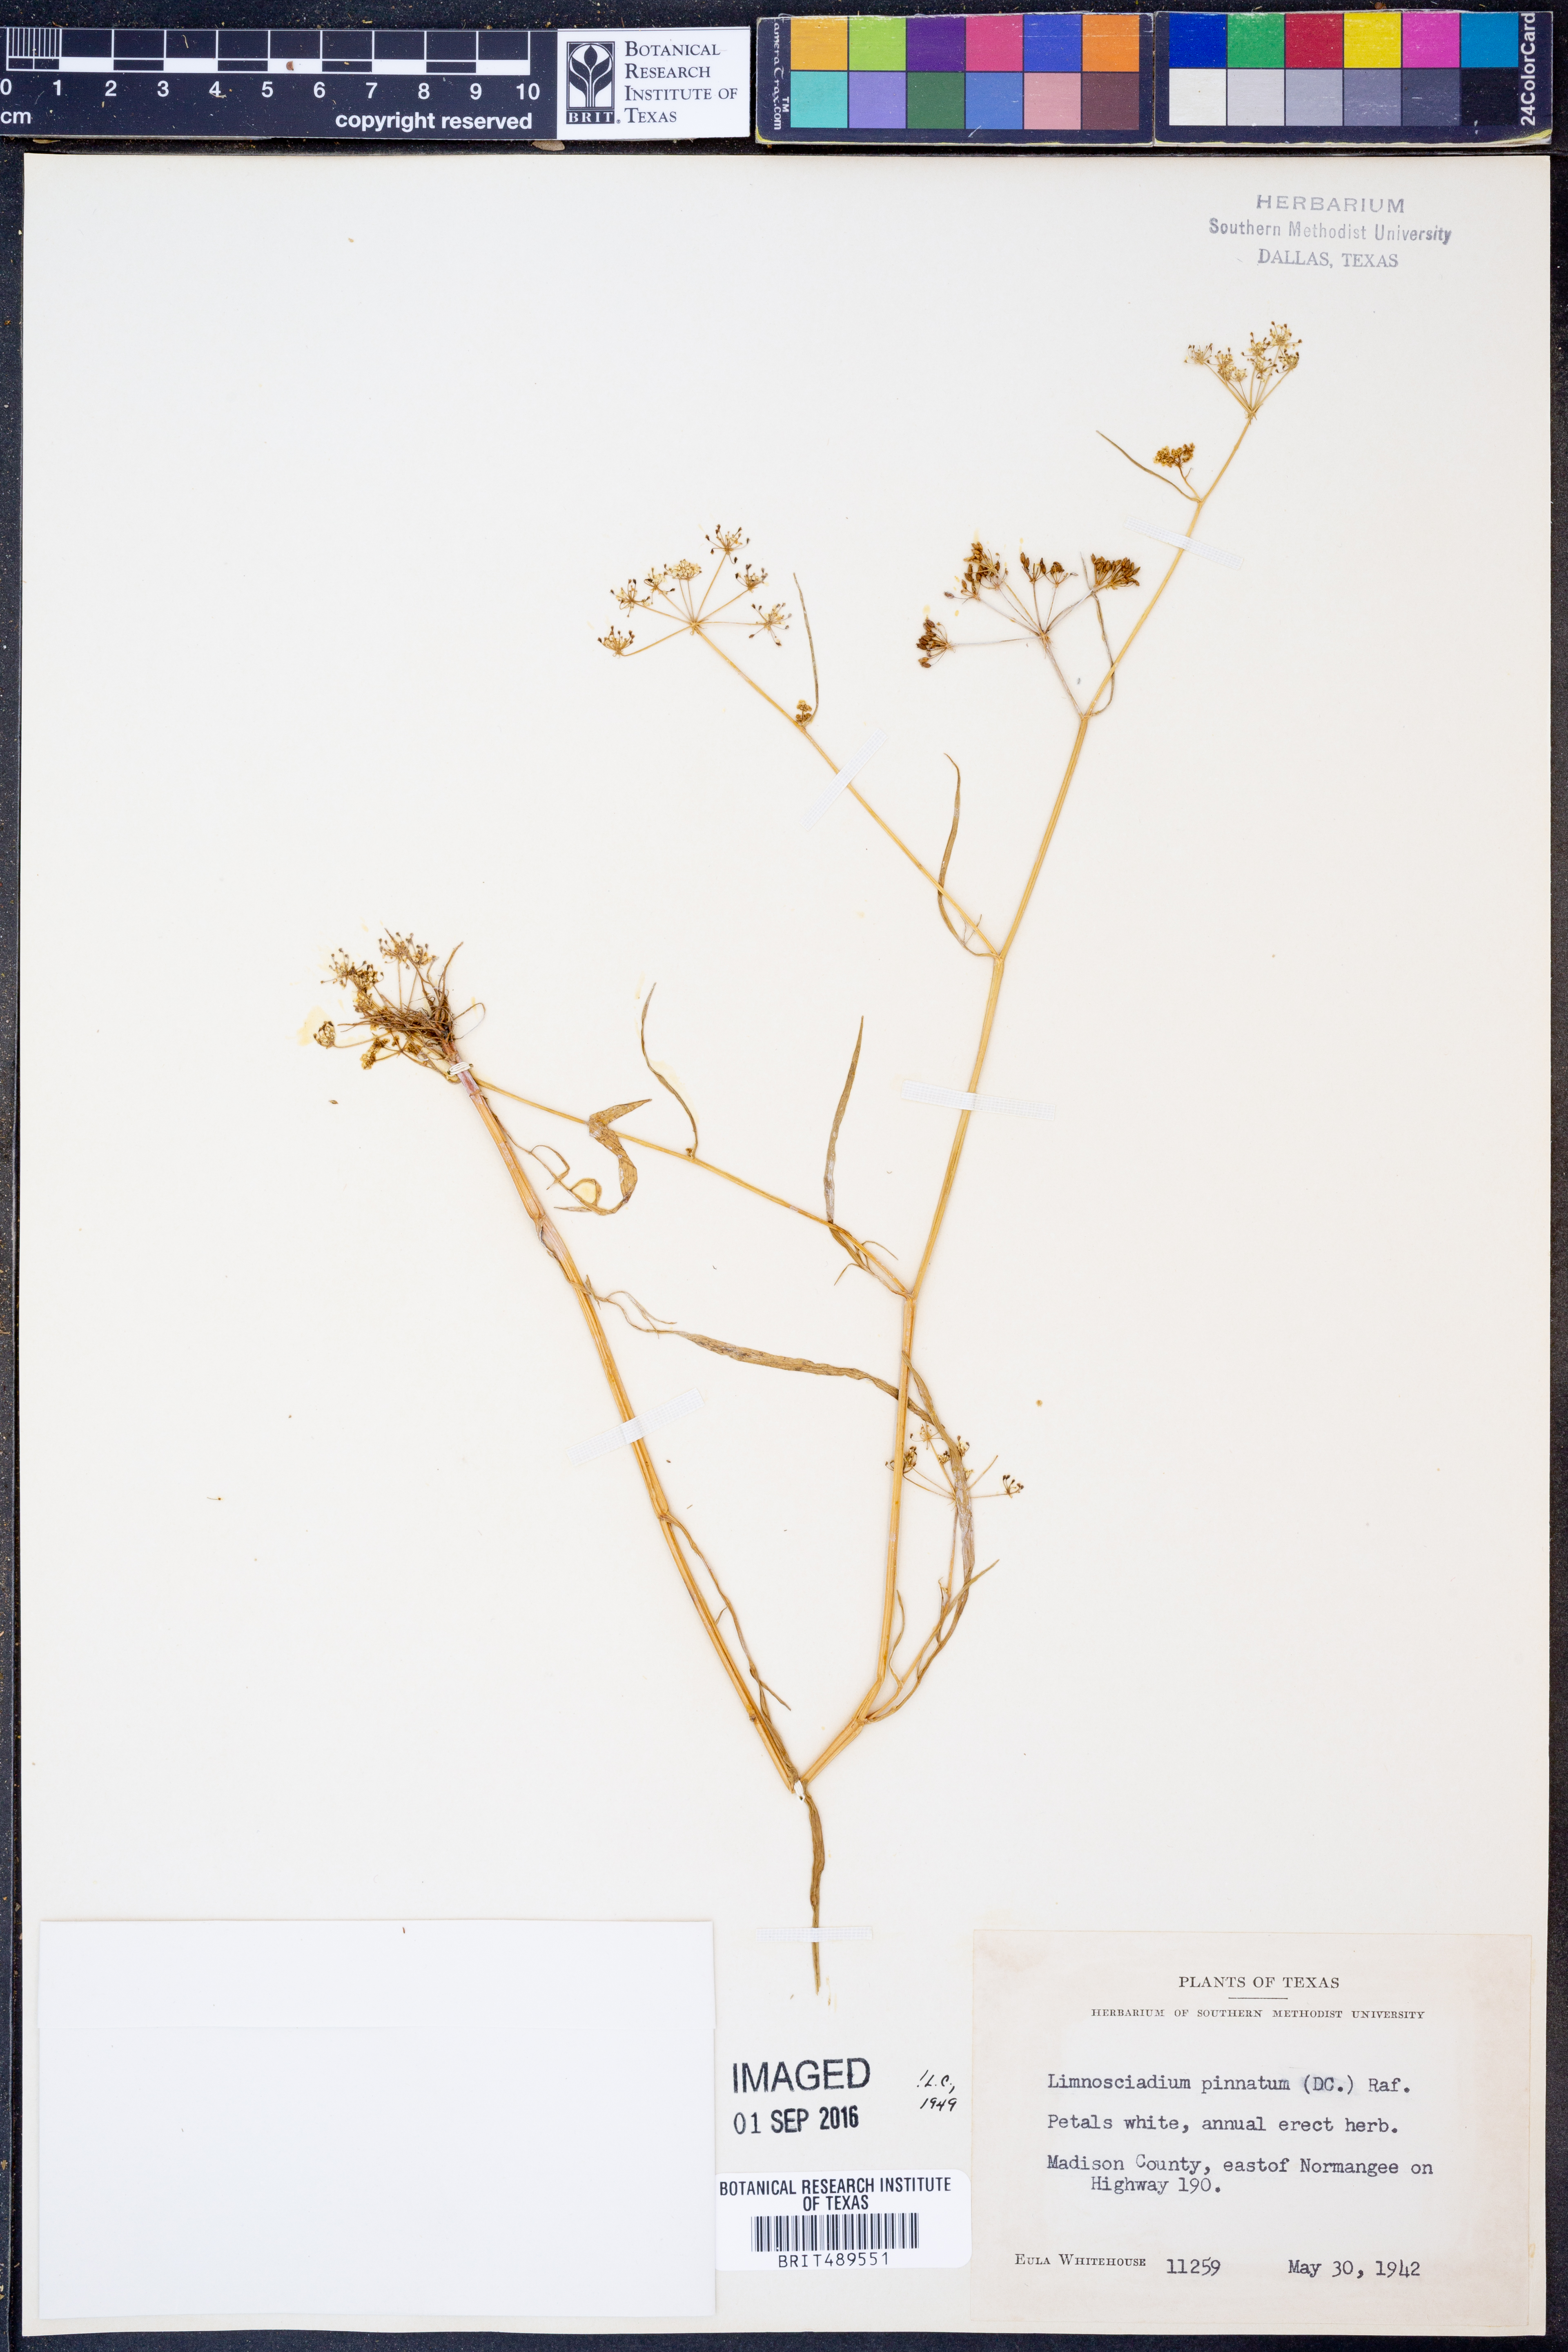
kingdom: Plantae
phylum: Tracheophyta
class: Magnoliopsida
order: Apiales
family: Apiaceae
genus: Limnosciadium
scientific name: Limnosciadium pinnatum
